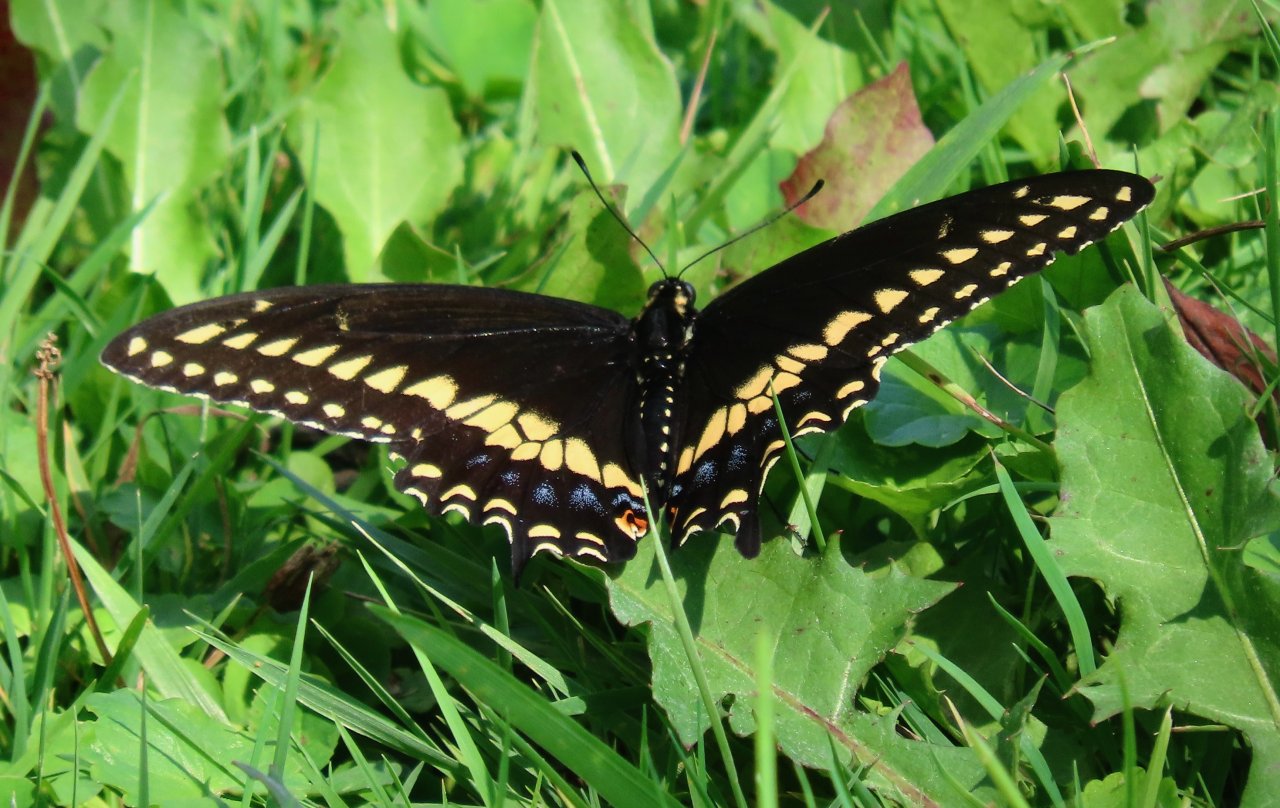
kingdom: Animalia
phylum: Arthropoda
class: Insecta
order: Lepidoptera
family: Papilionidae
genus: Papilio
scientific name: Papilio polyxenes
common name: Black Swallowtail
